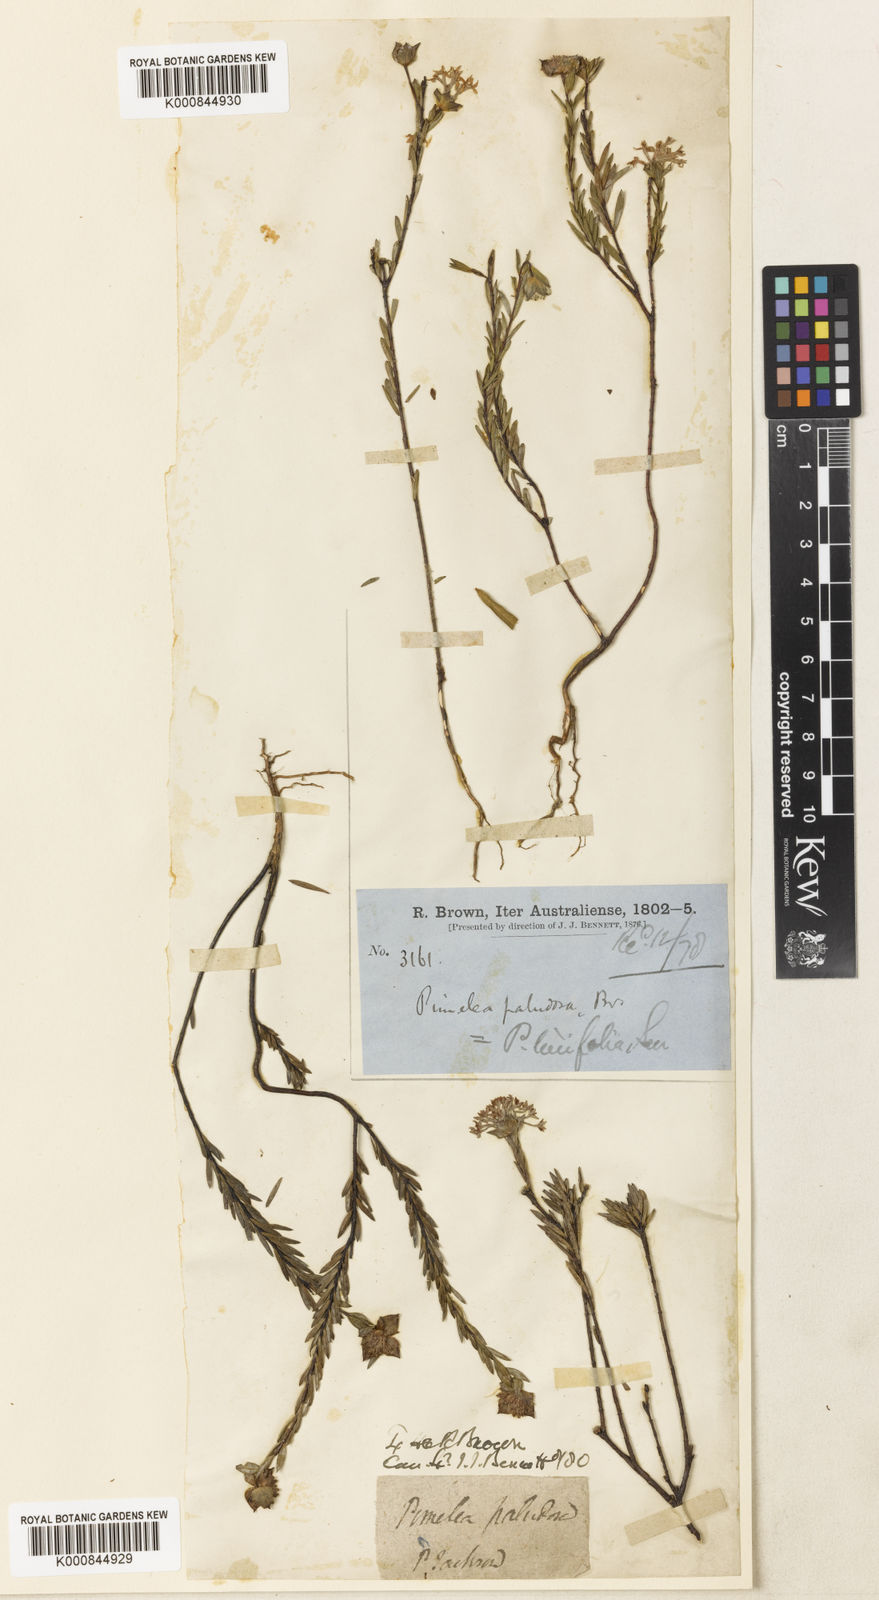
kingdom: Plantae
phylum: Tracheophyta
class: Magnoliopsida
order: Malvales
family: Thymelaeaceae
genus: Pimelea
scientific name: Pimelea linifolia
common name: Queen-of-the-bush
